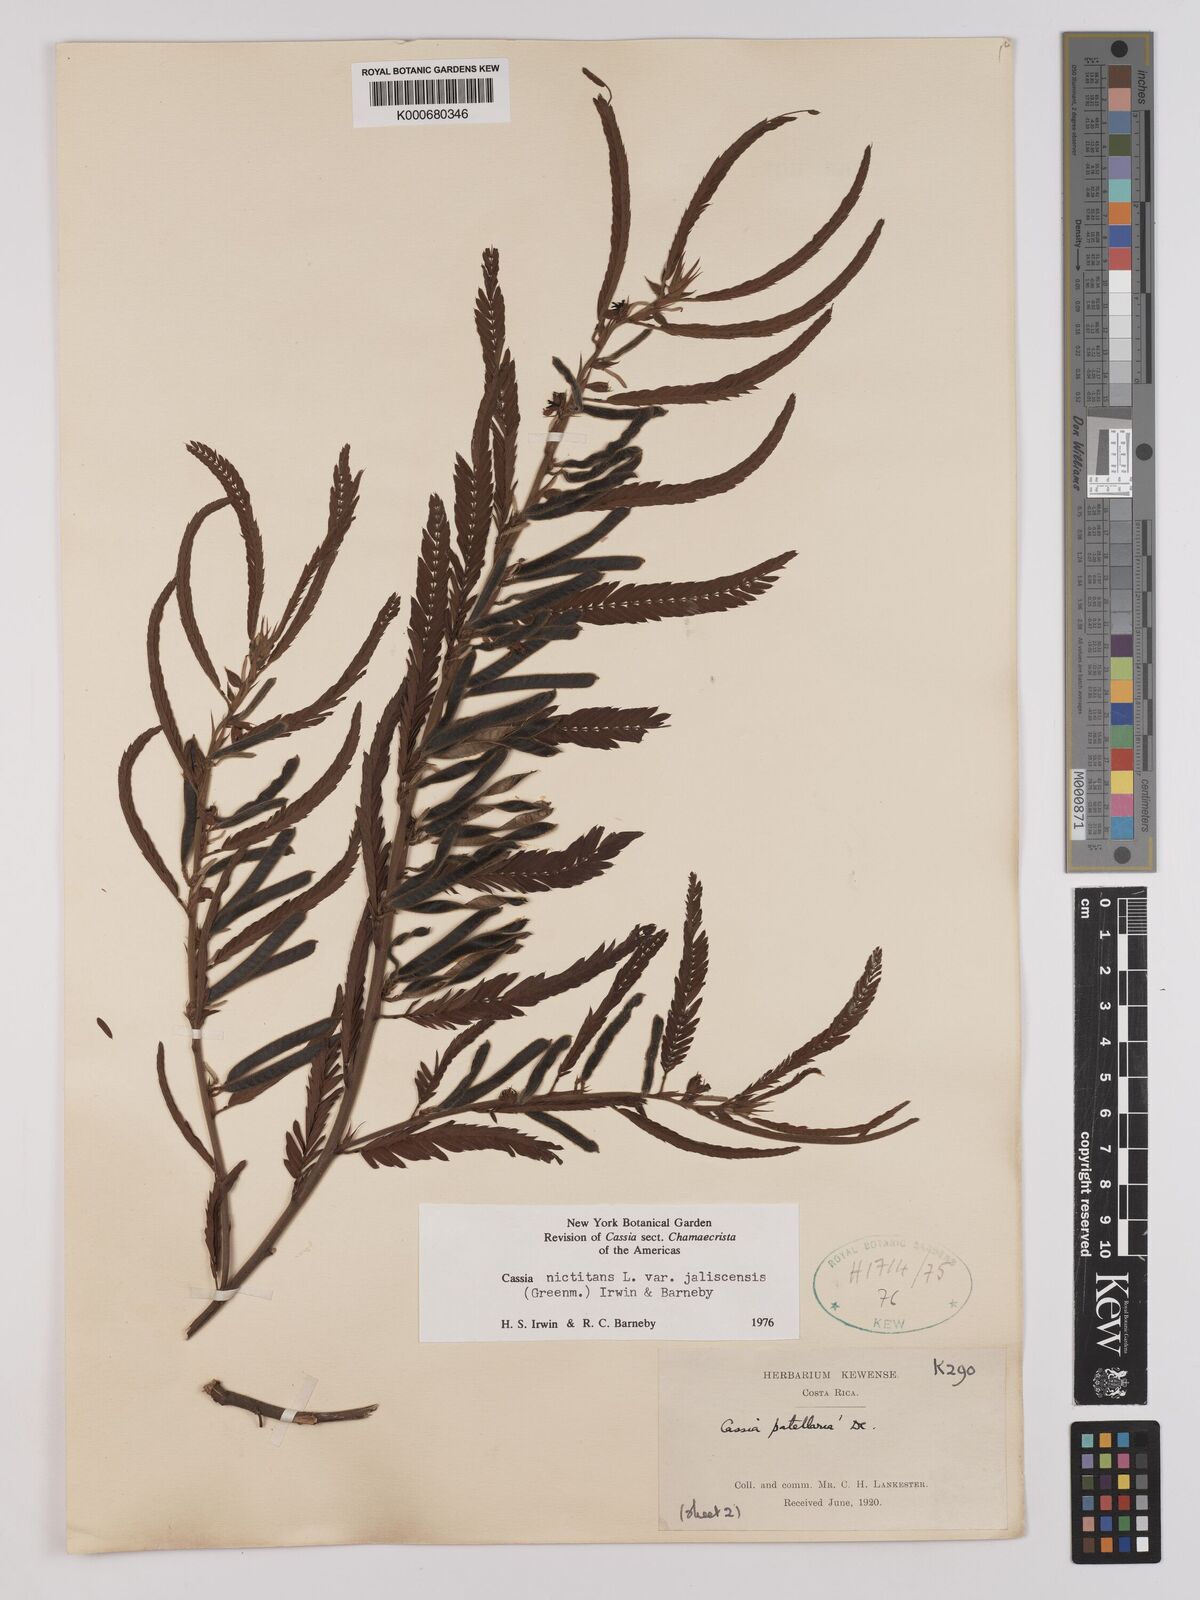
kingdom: Plantae
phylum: Tracheophyta
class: Magnoliopsida
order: Fabales
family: Fabaceae
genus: Chamaecrista
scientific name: Chamaecrista nictitans
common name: Sensitive cassia
